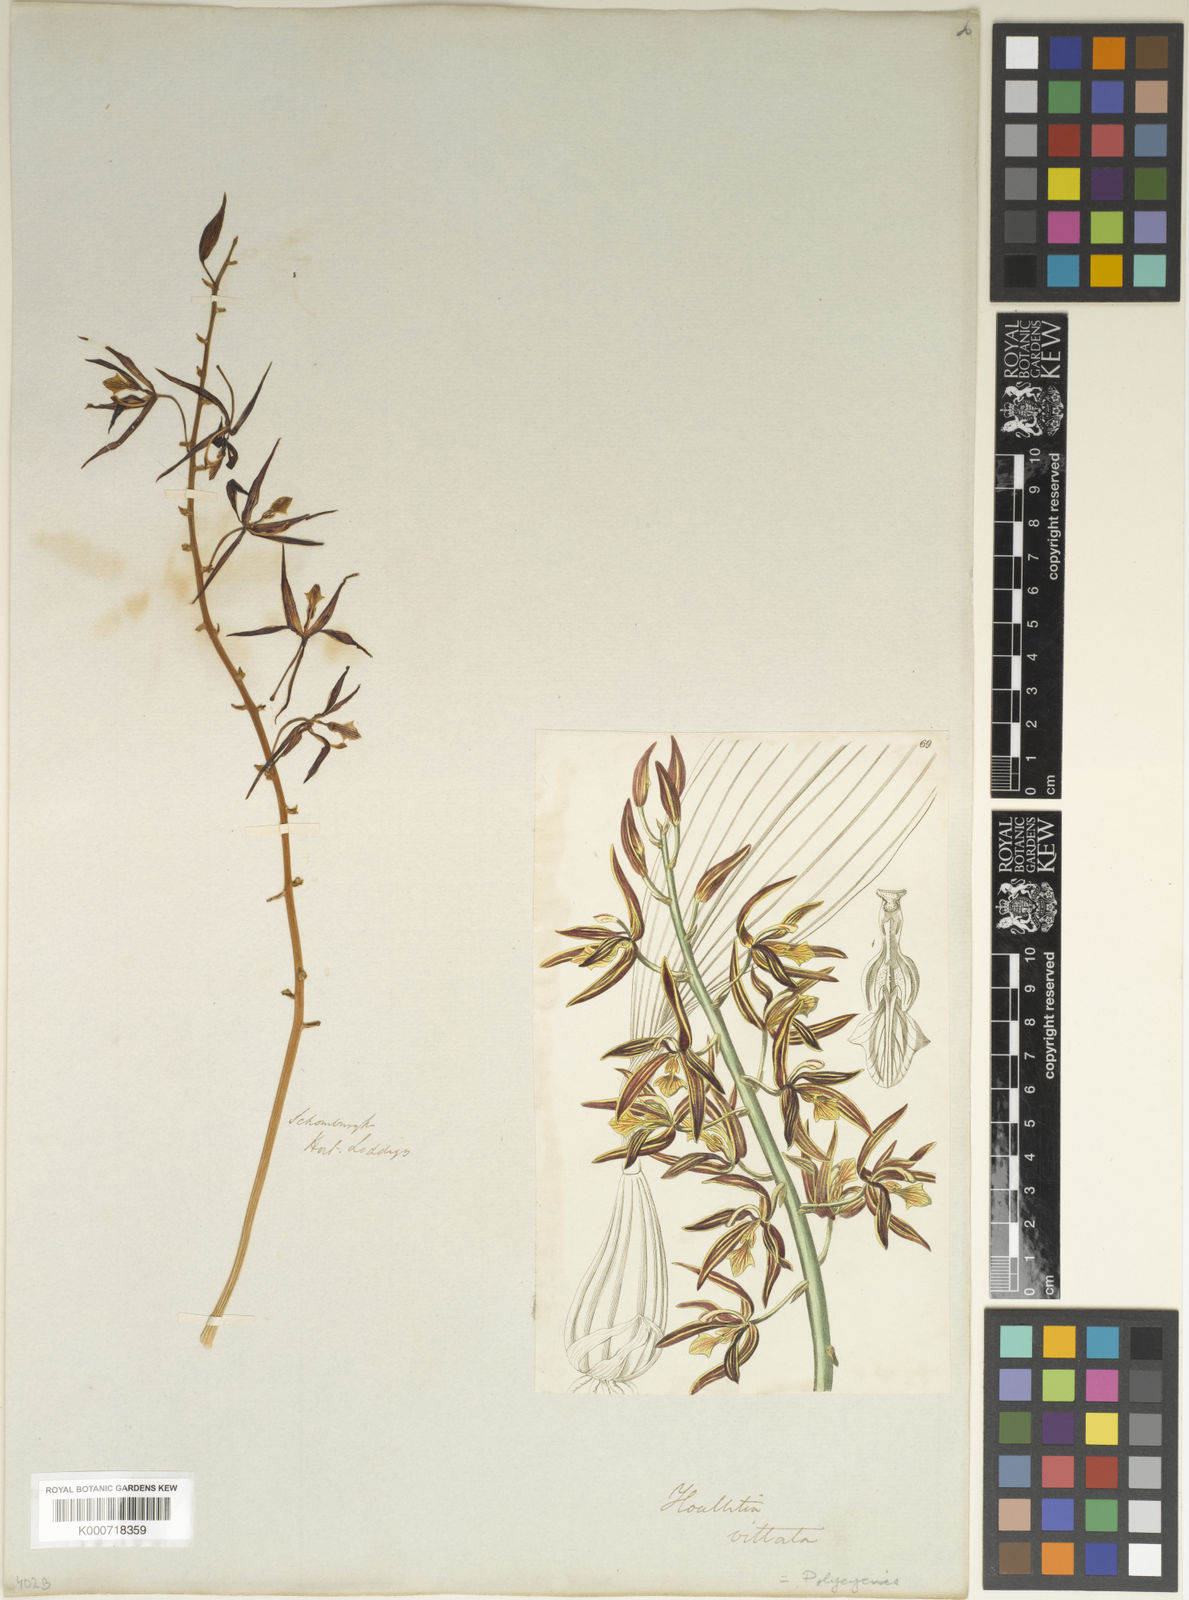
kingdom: Plantae
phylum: Tracheophyta
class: Liliopsida
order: Asparagales
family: Orchidaceae
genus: Braemia
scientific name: Braemia vittata
